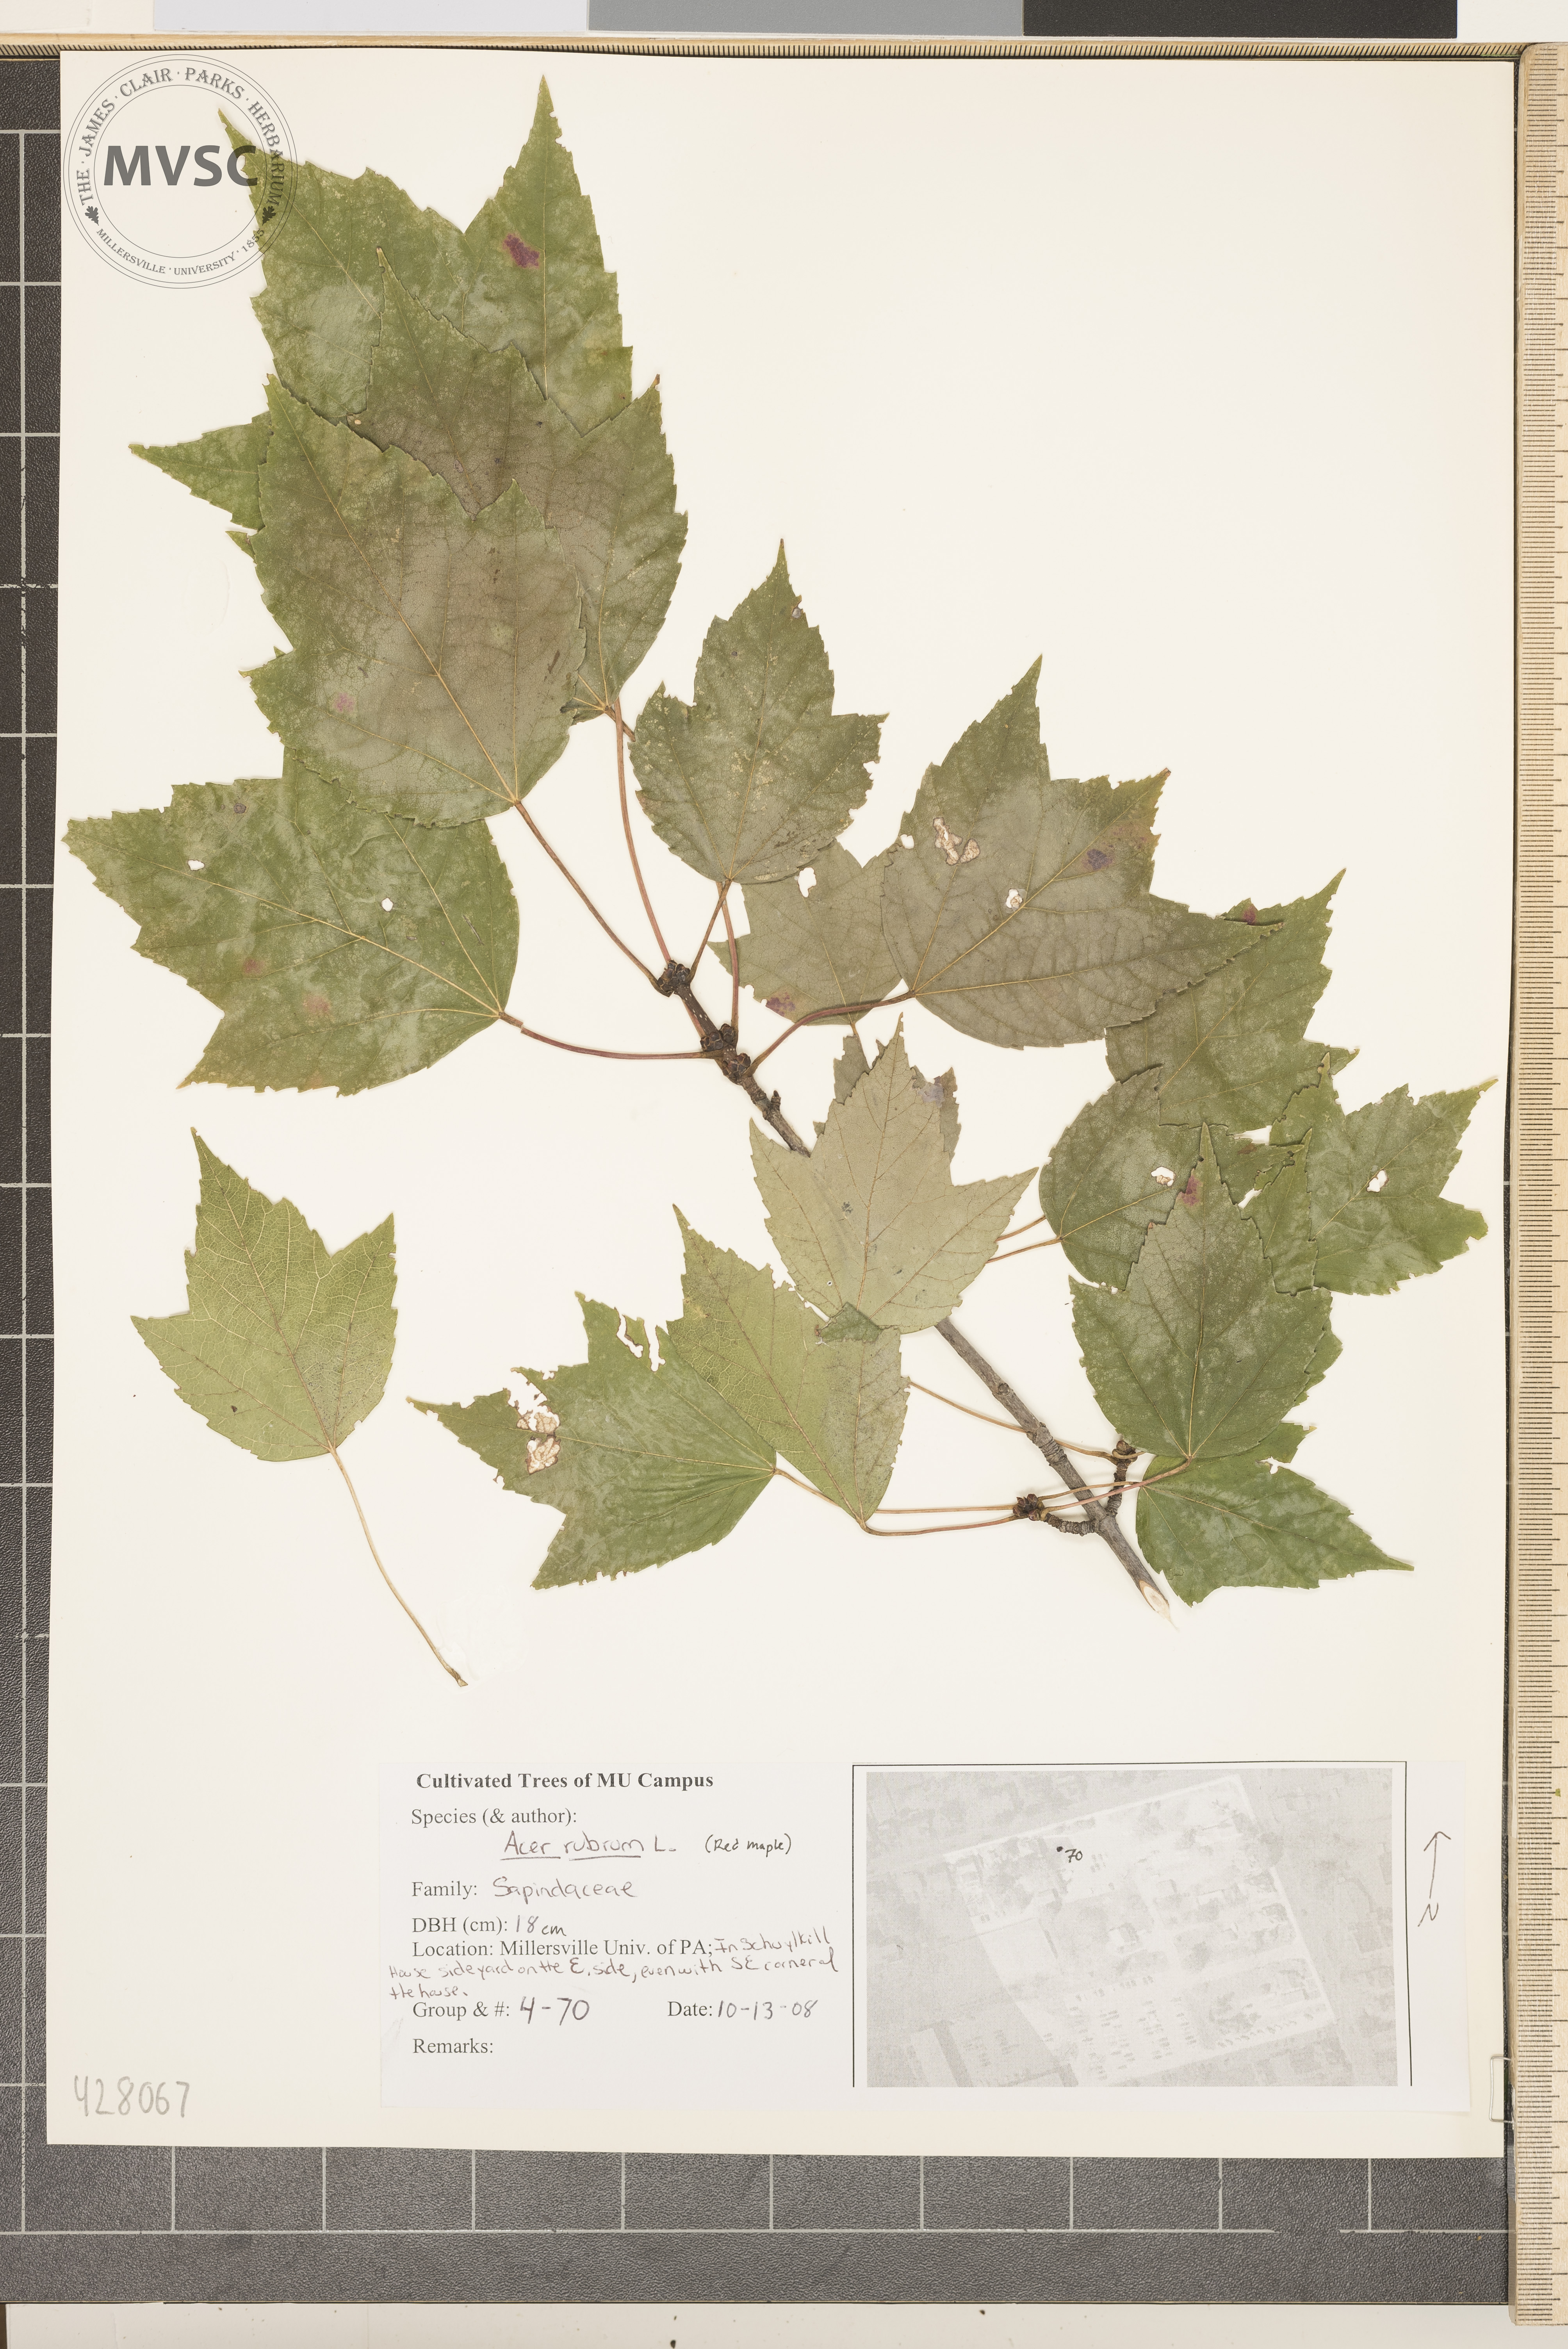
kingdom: Plantae
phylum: Tracheophyta
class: Magnoliopsida
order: Sapindales
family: Sapindaceae
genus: Acer
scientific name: Acer rubrum
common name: Red Maple
